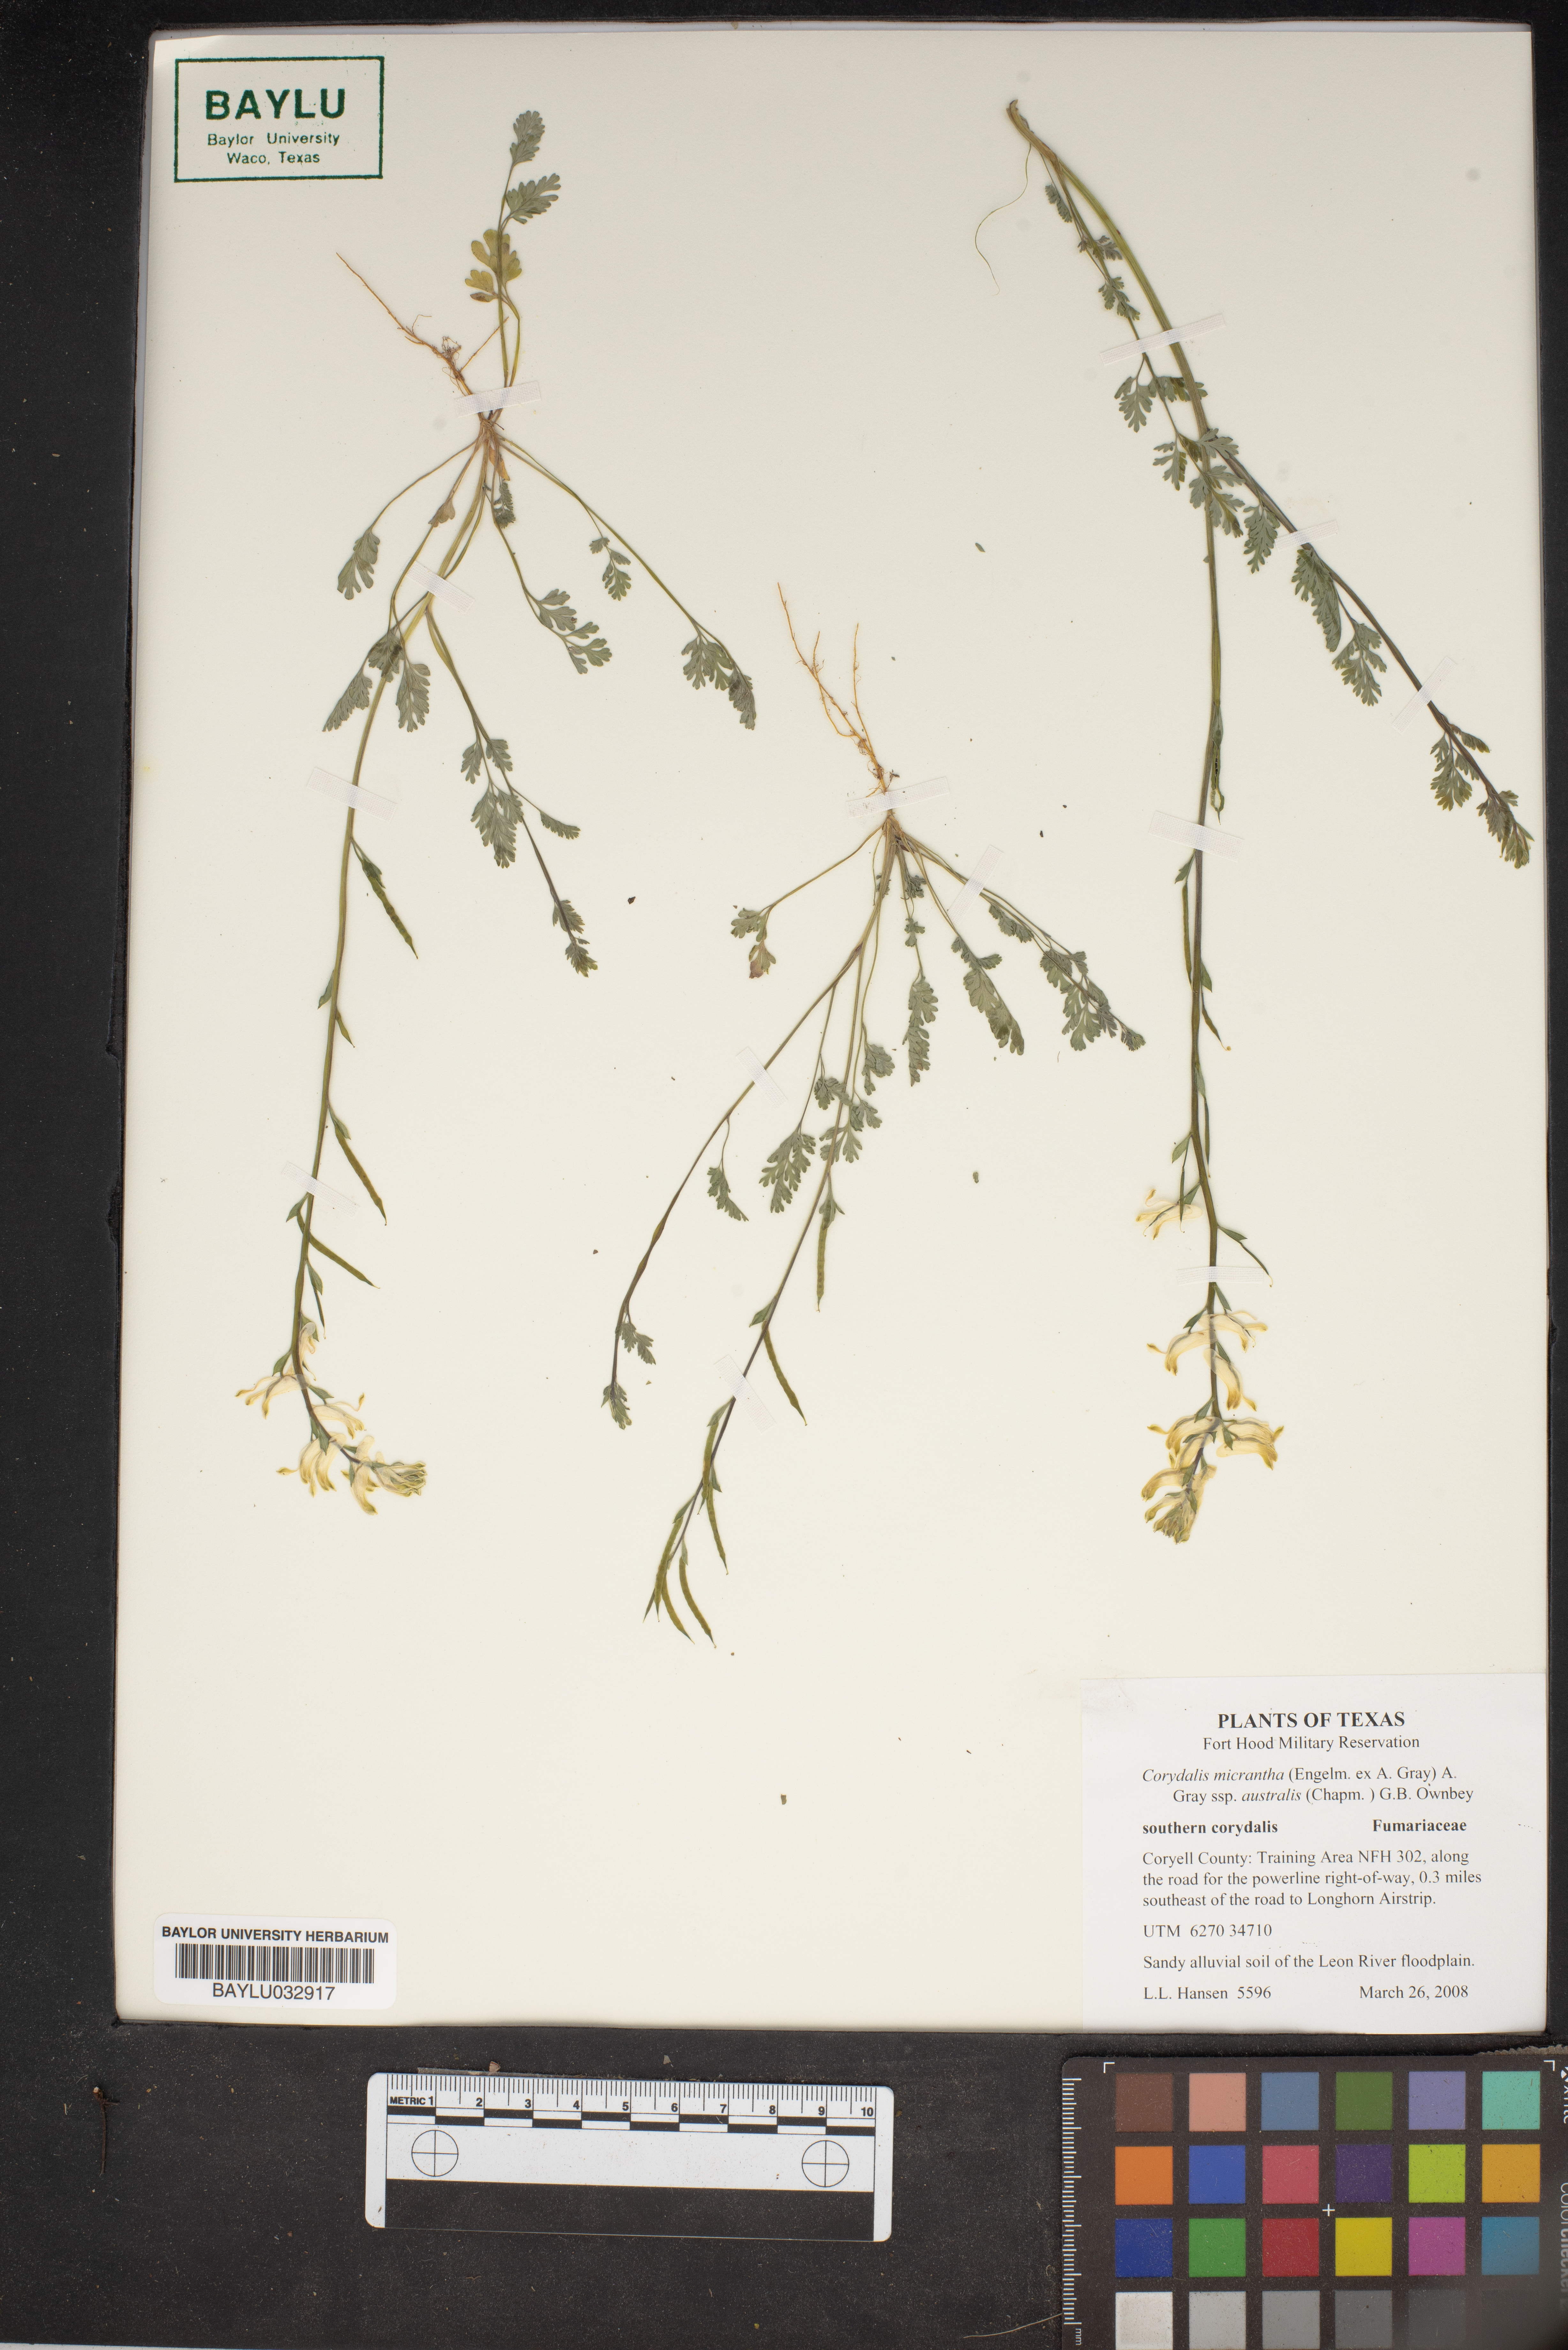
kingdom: Plantae
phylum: Tracheophyta
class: Magnoliopsida
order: Ranunculales
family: Papaveraceae
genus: Corydalis
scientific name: Corydalis micrantha
